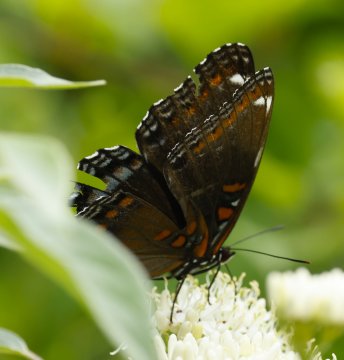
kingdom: Animalia
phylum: Arthropoda
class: Insecta
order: Lepidoptera
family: Nymphalidae
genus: Limenitis
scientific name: Limenitis arthemis
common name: Red-spotted Admiral
